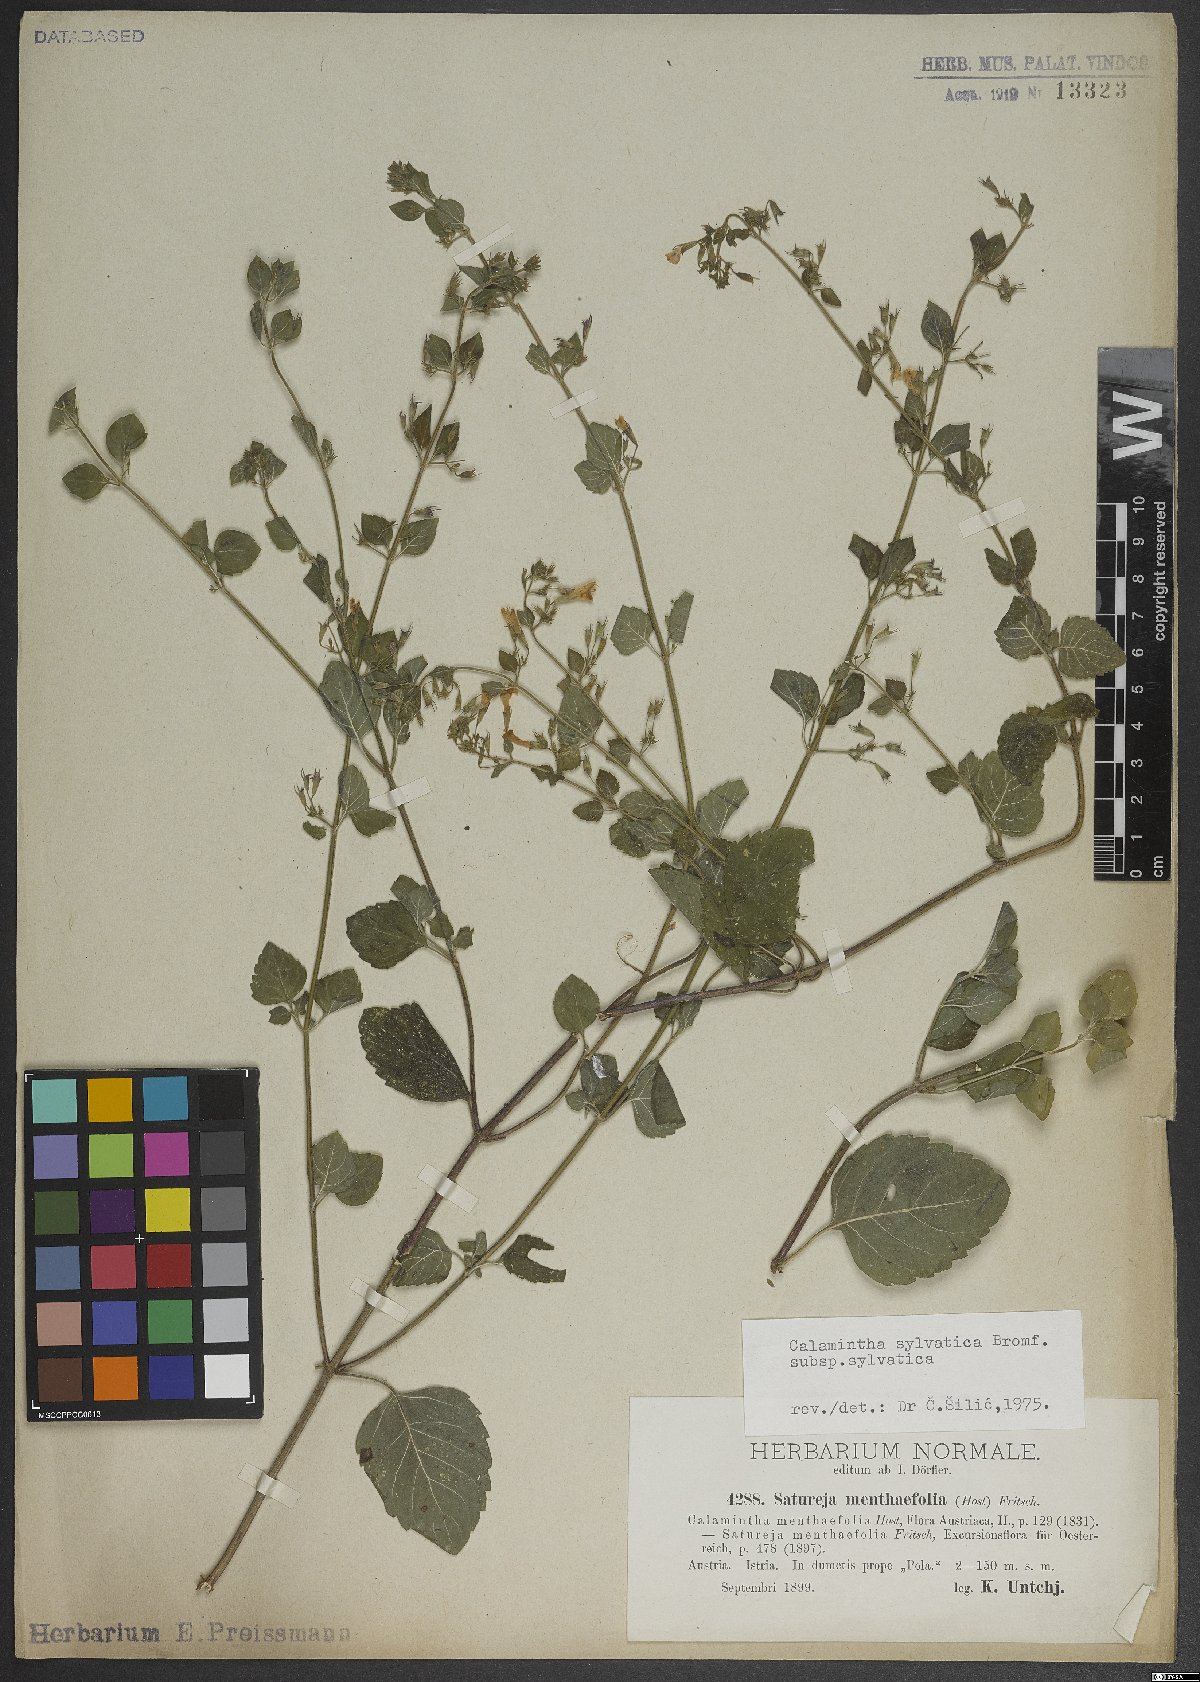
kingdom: Plantae
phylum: Tracheophyta
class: Magnoliopsida
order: Lamiales
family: Lamiaceae
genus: Clinopodium
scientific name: Clinopodium menthifolium
